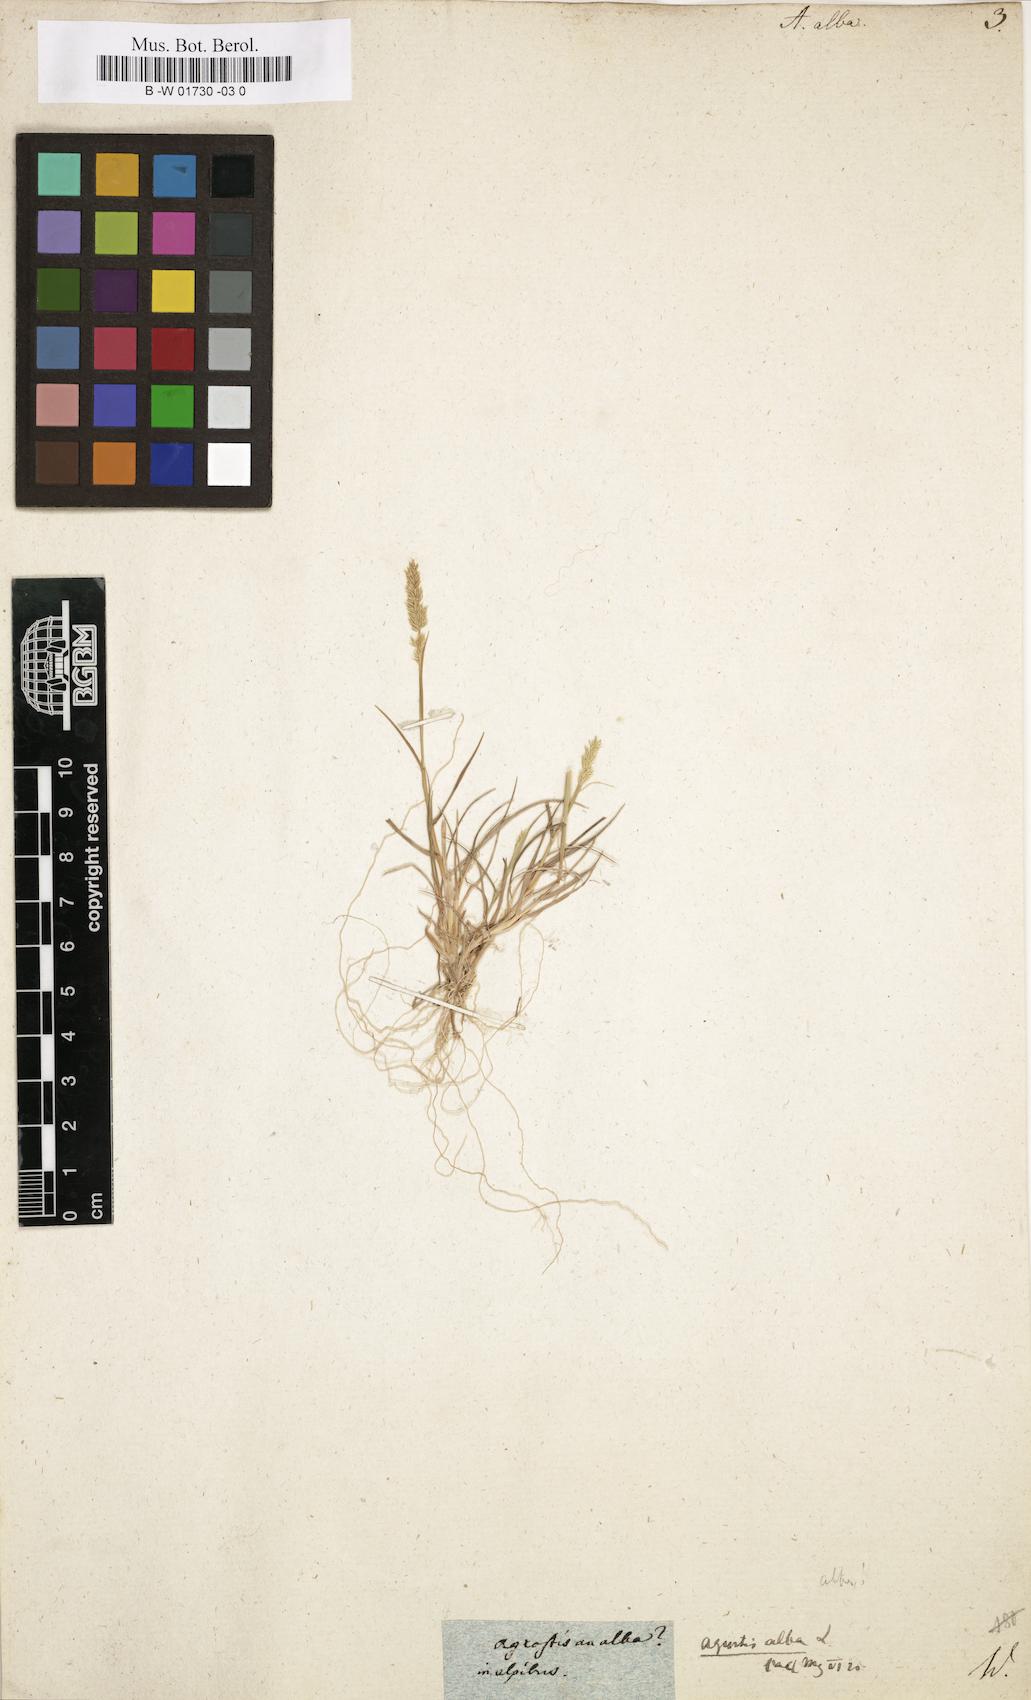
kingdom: Plantae
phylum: Tracheophyta
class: Liliopsida
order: Poales
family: Poaceae
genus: Poa
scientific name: Poa nemoralis
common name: Wood bluegrass
